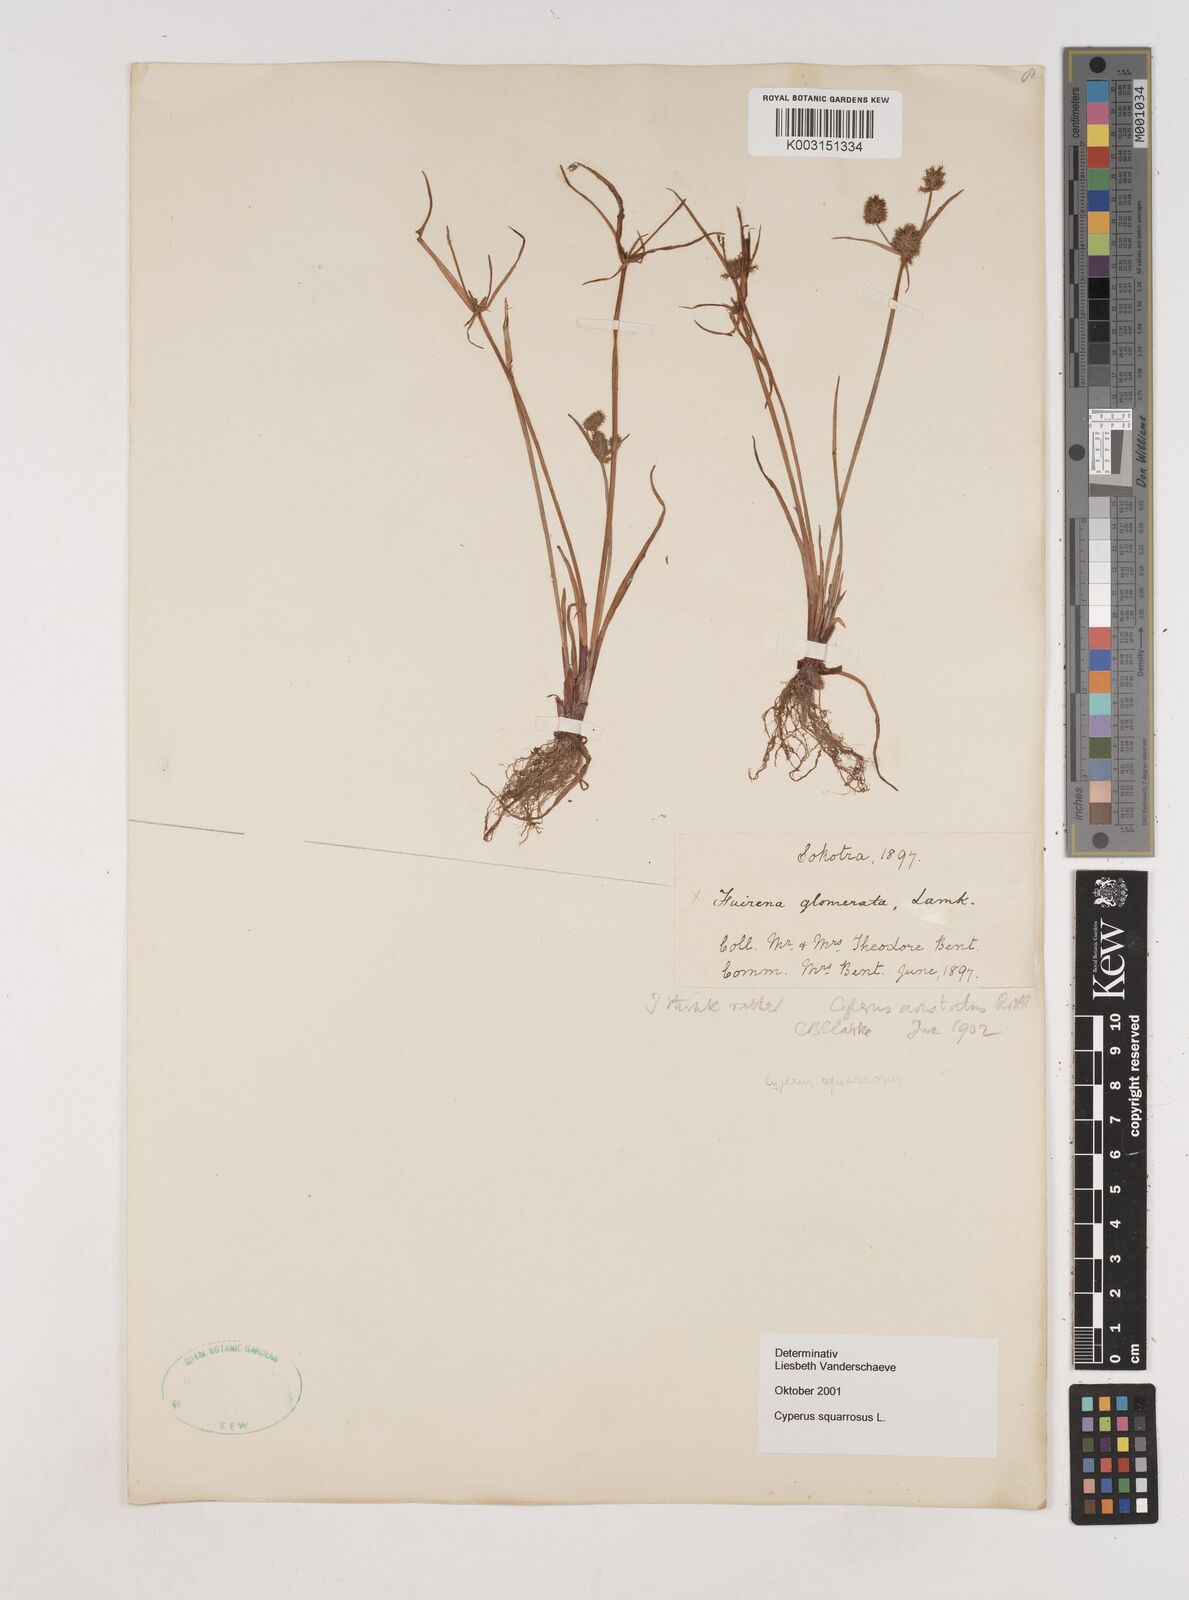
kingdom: Plantae
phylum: Tracheophyta
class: Liliopsida
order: Poales
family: Cyperaceae
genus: Cyperus
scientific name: Cyperus squarrosus
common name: Awned cyperus
